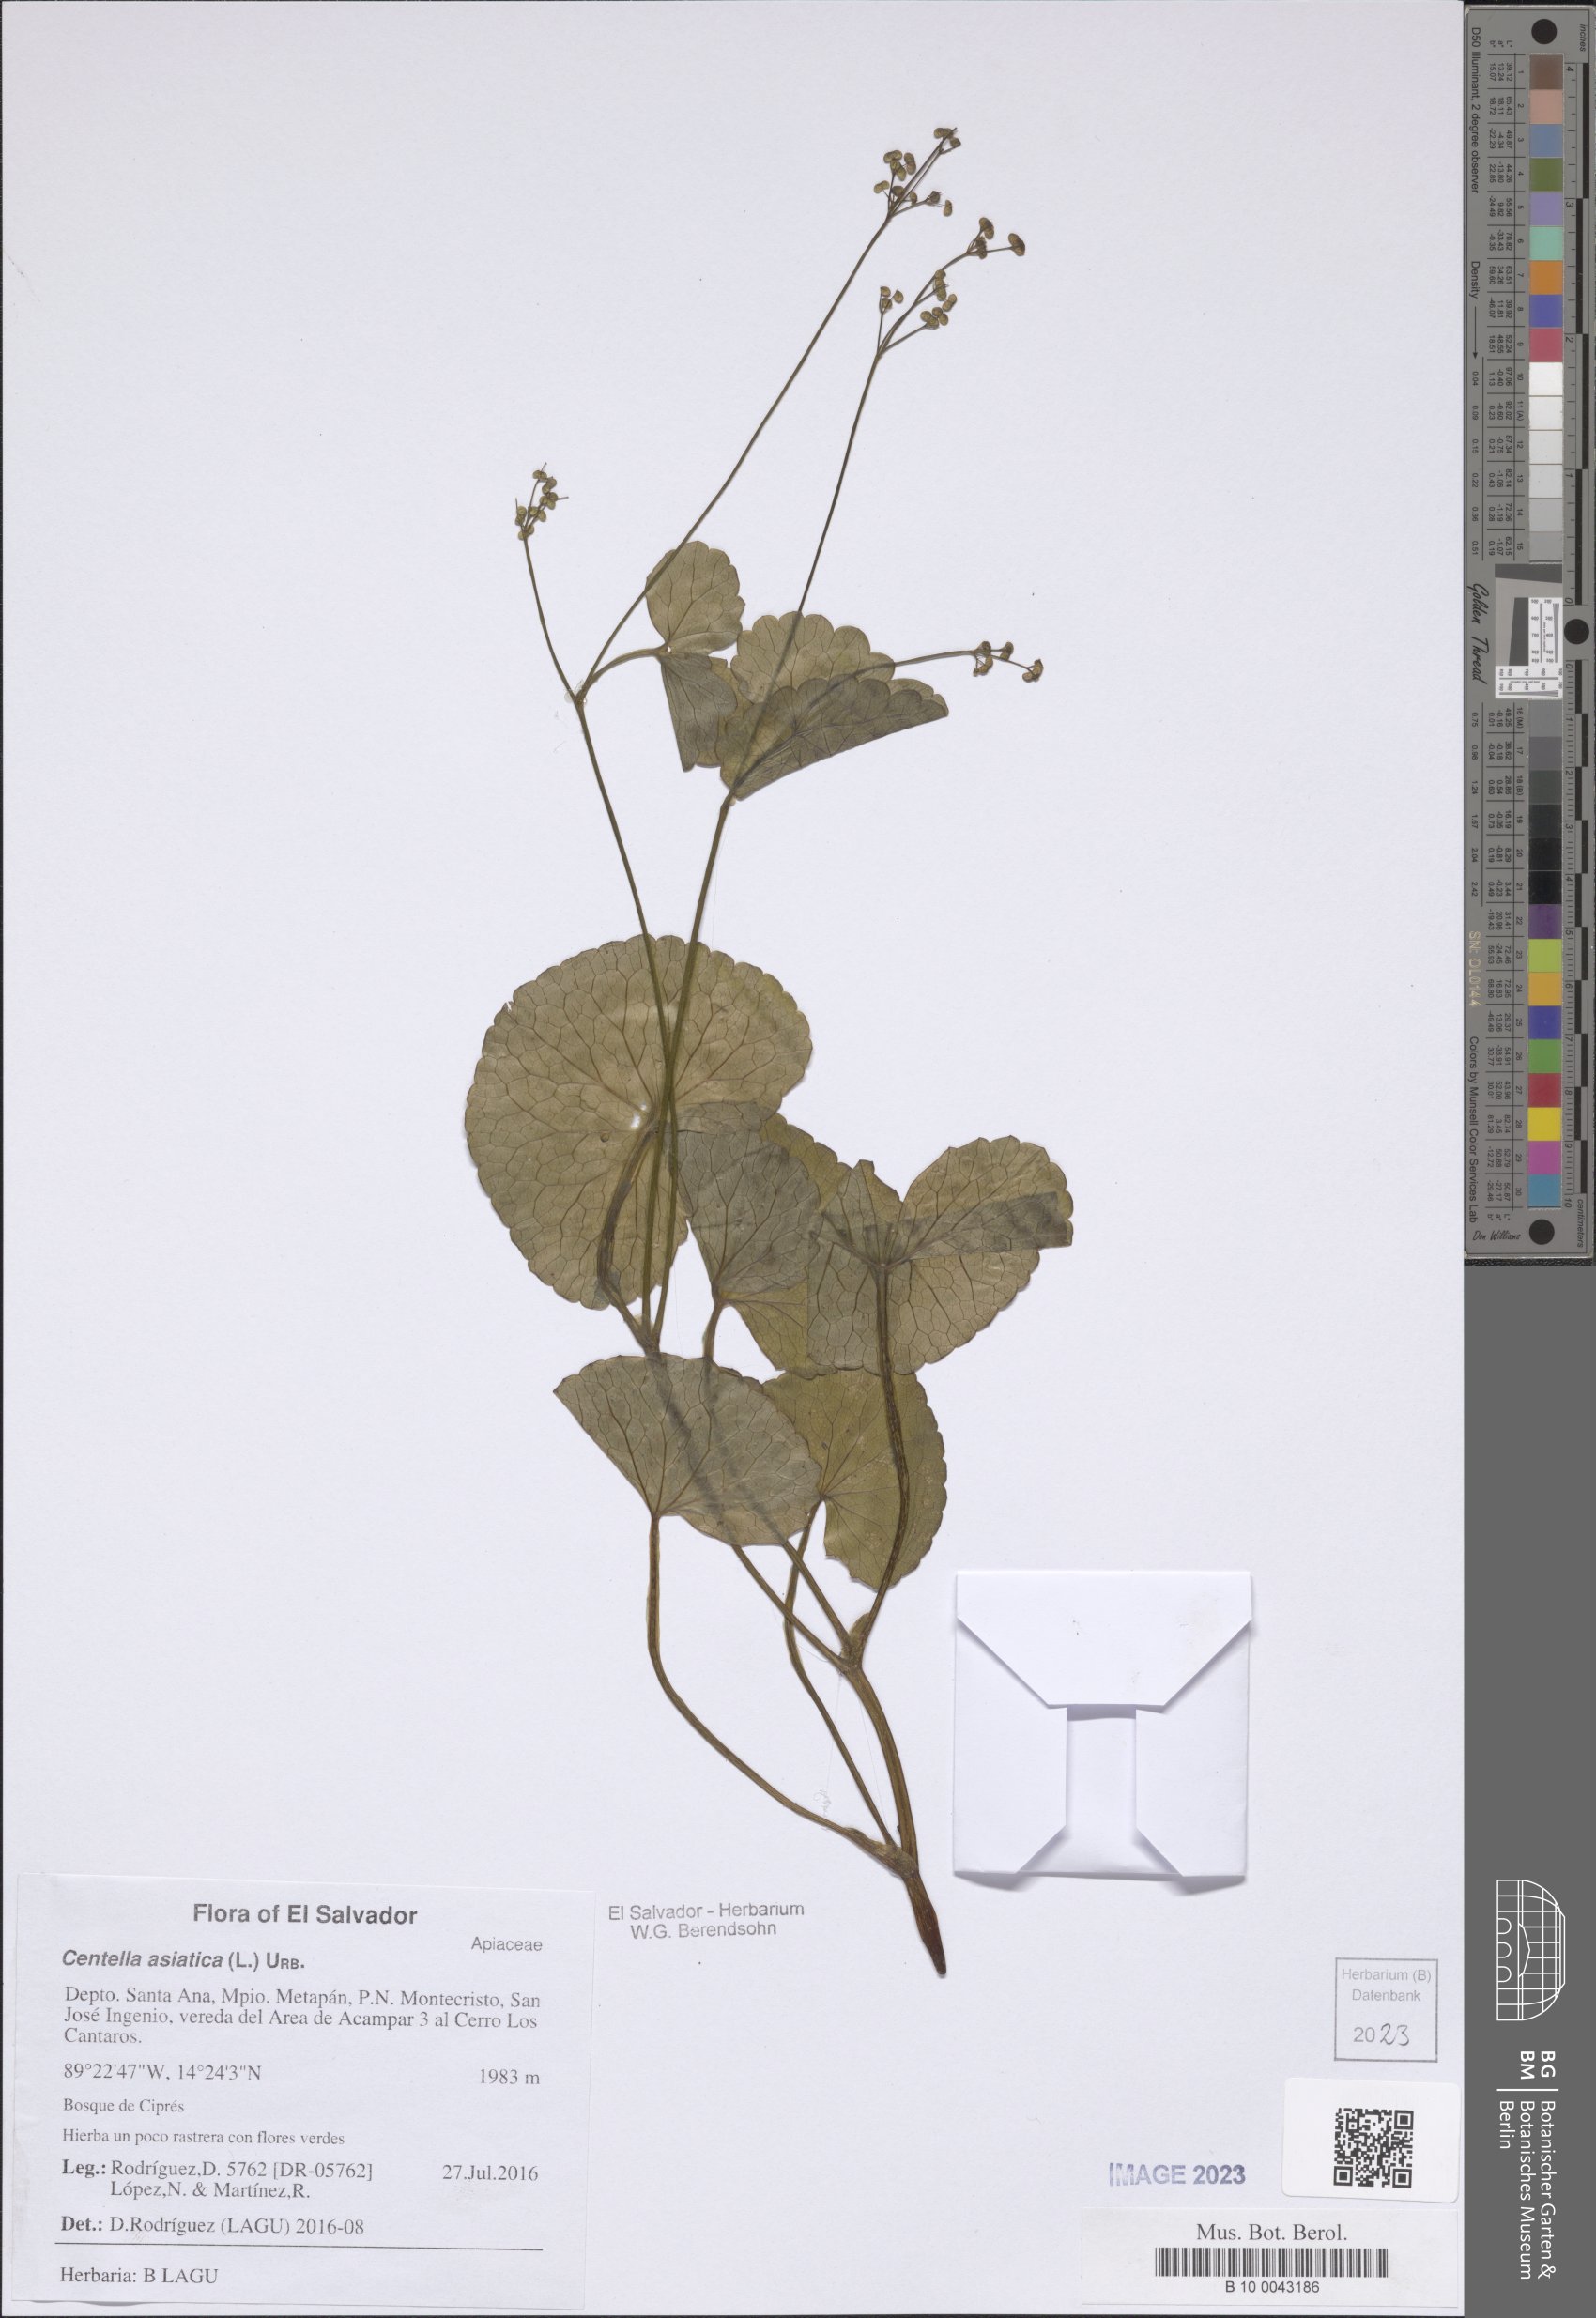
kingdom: Plantae
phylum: Tracheophyta
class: Magnoliopsida
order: Apiales
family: Apiaceae
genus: Centella
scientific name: Centella asiatica
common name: Spadeleaf
